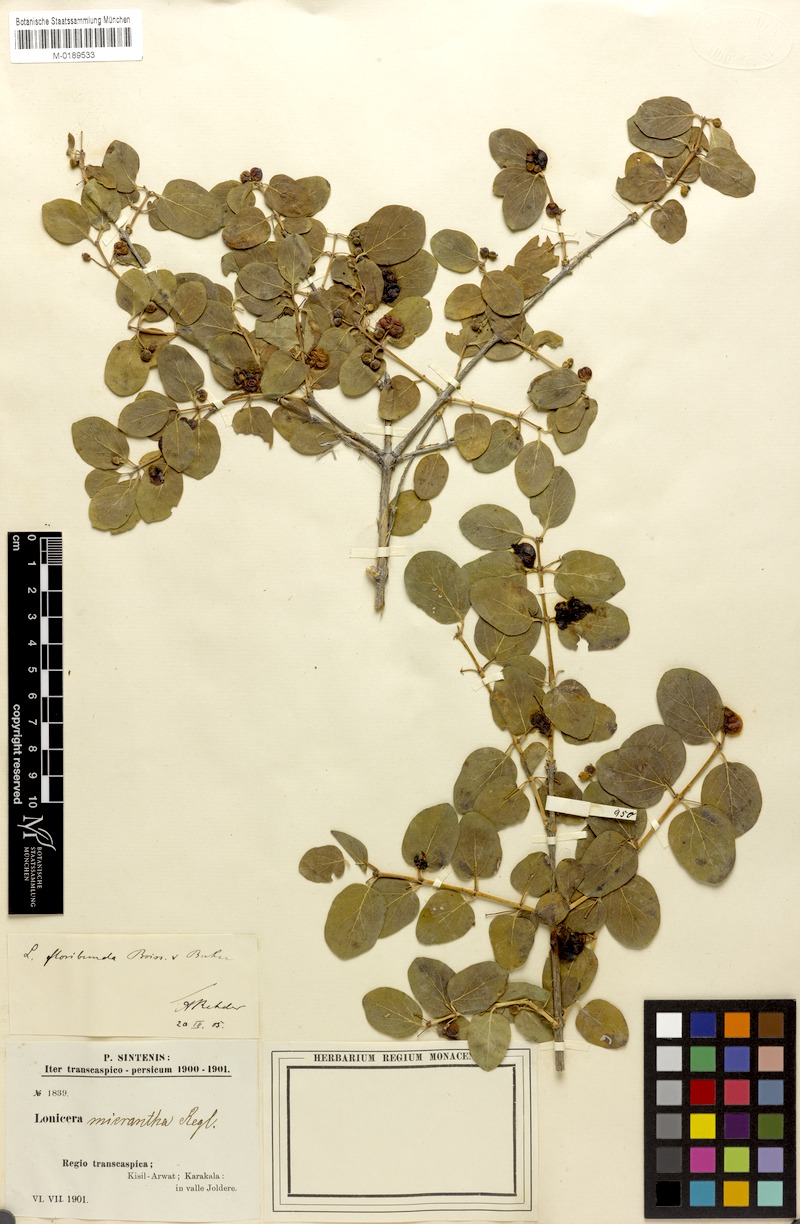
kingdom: Plantae
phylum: Tracheophyta
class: Magnoliopsida
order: Dipsacales
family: Caprifoliaceae
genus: Lonicera
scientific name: Lonicera floribunda
